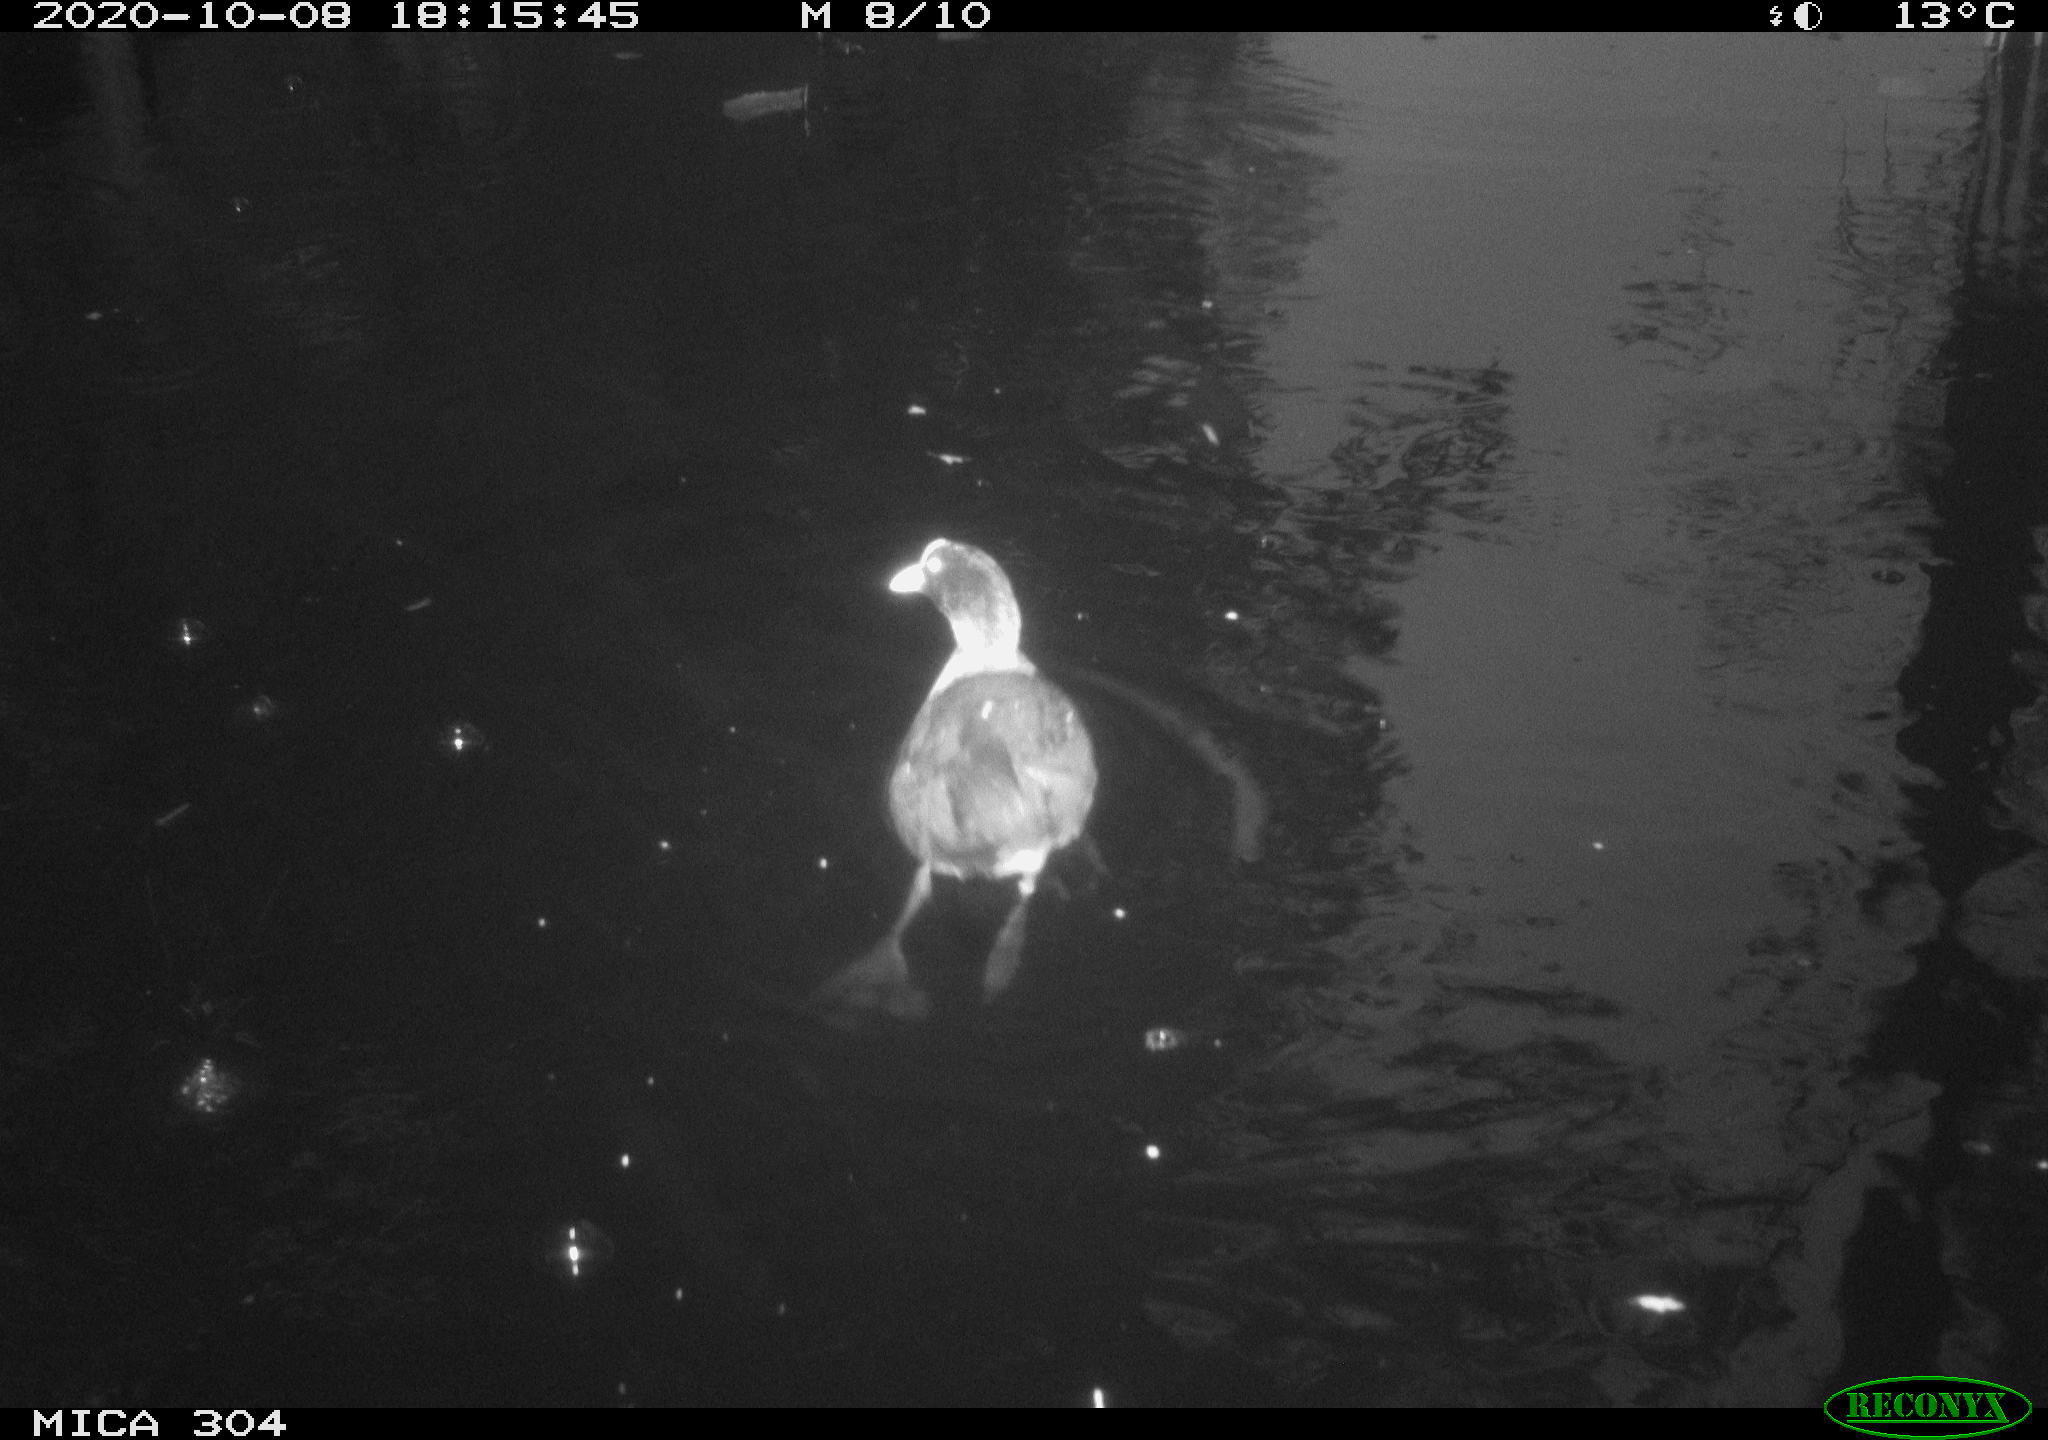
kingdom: Animalia
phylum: Chordata
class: Aves
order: Gruiformes
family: Rallidae
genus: Fulica
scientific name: Fulica atra
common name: Eurasian coot
